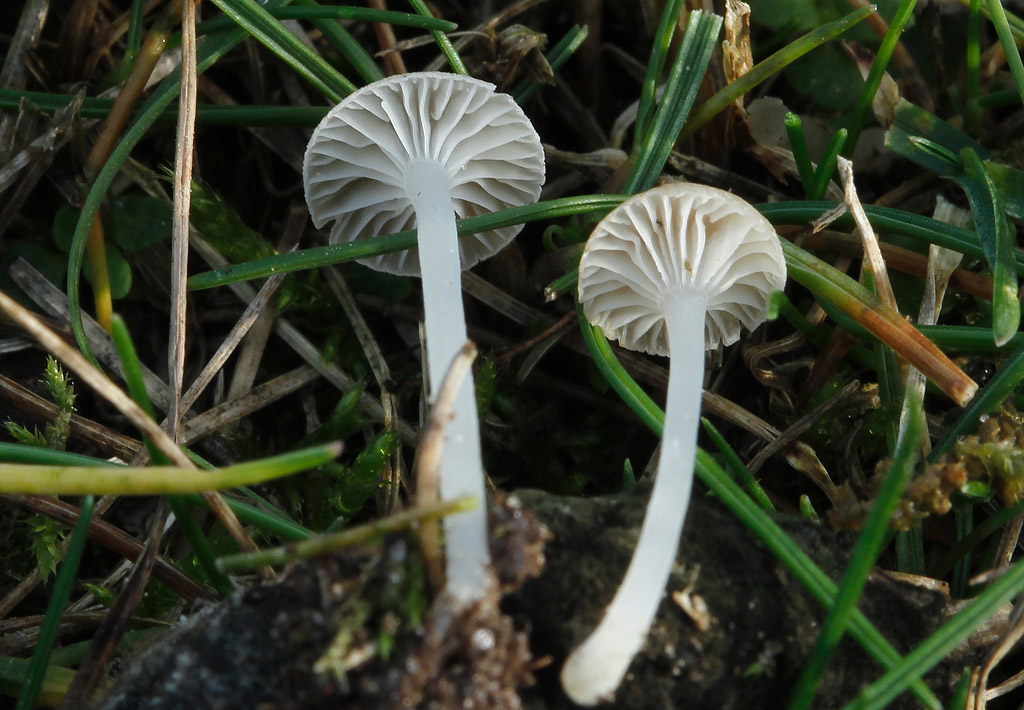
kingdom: Fungi
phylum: Basidiomycota
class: Agaricomycetes
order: Agaricales
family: Mycenaceae
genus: Hemimycena
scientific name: Hemimycena mairei
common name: voks-huesvamp
